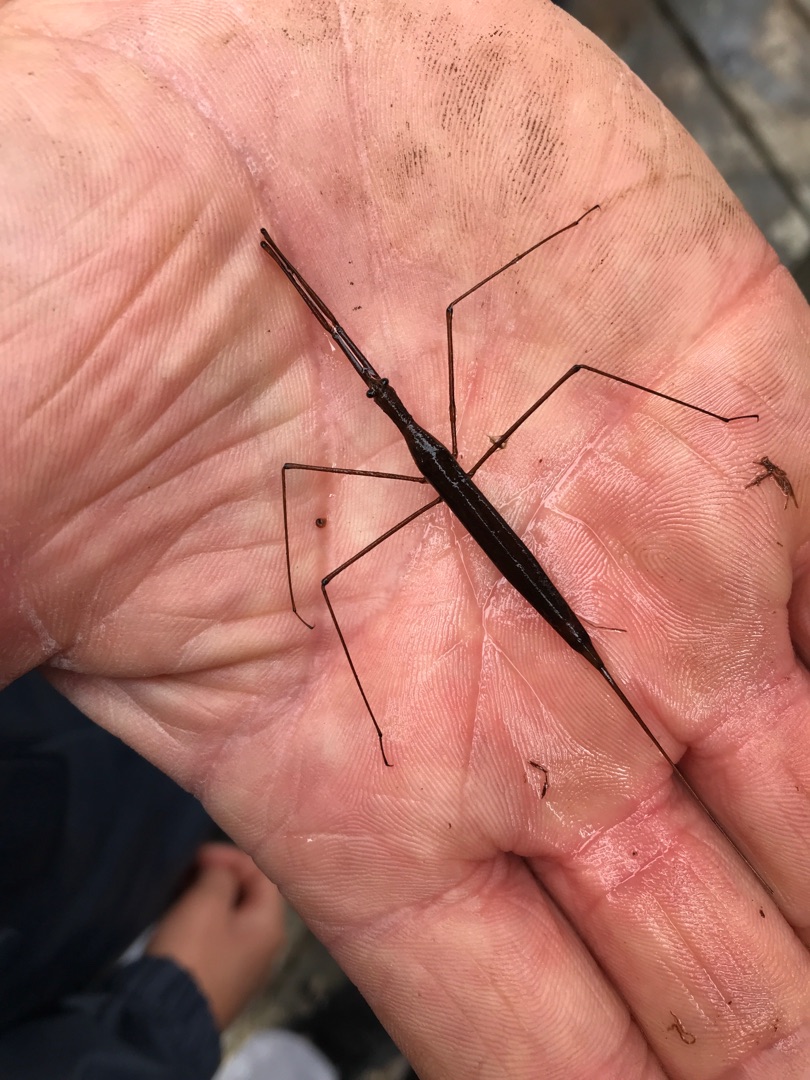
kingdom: Animalia
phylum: Arthropoda
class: Insecta
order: Hemiptera
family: Nepidae
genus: Ranatra
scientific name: Ranatra linearis
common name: Stavtæge
